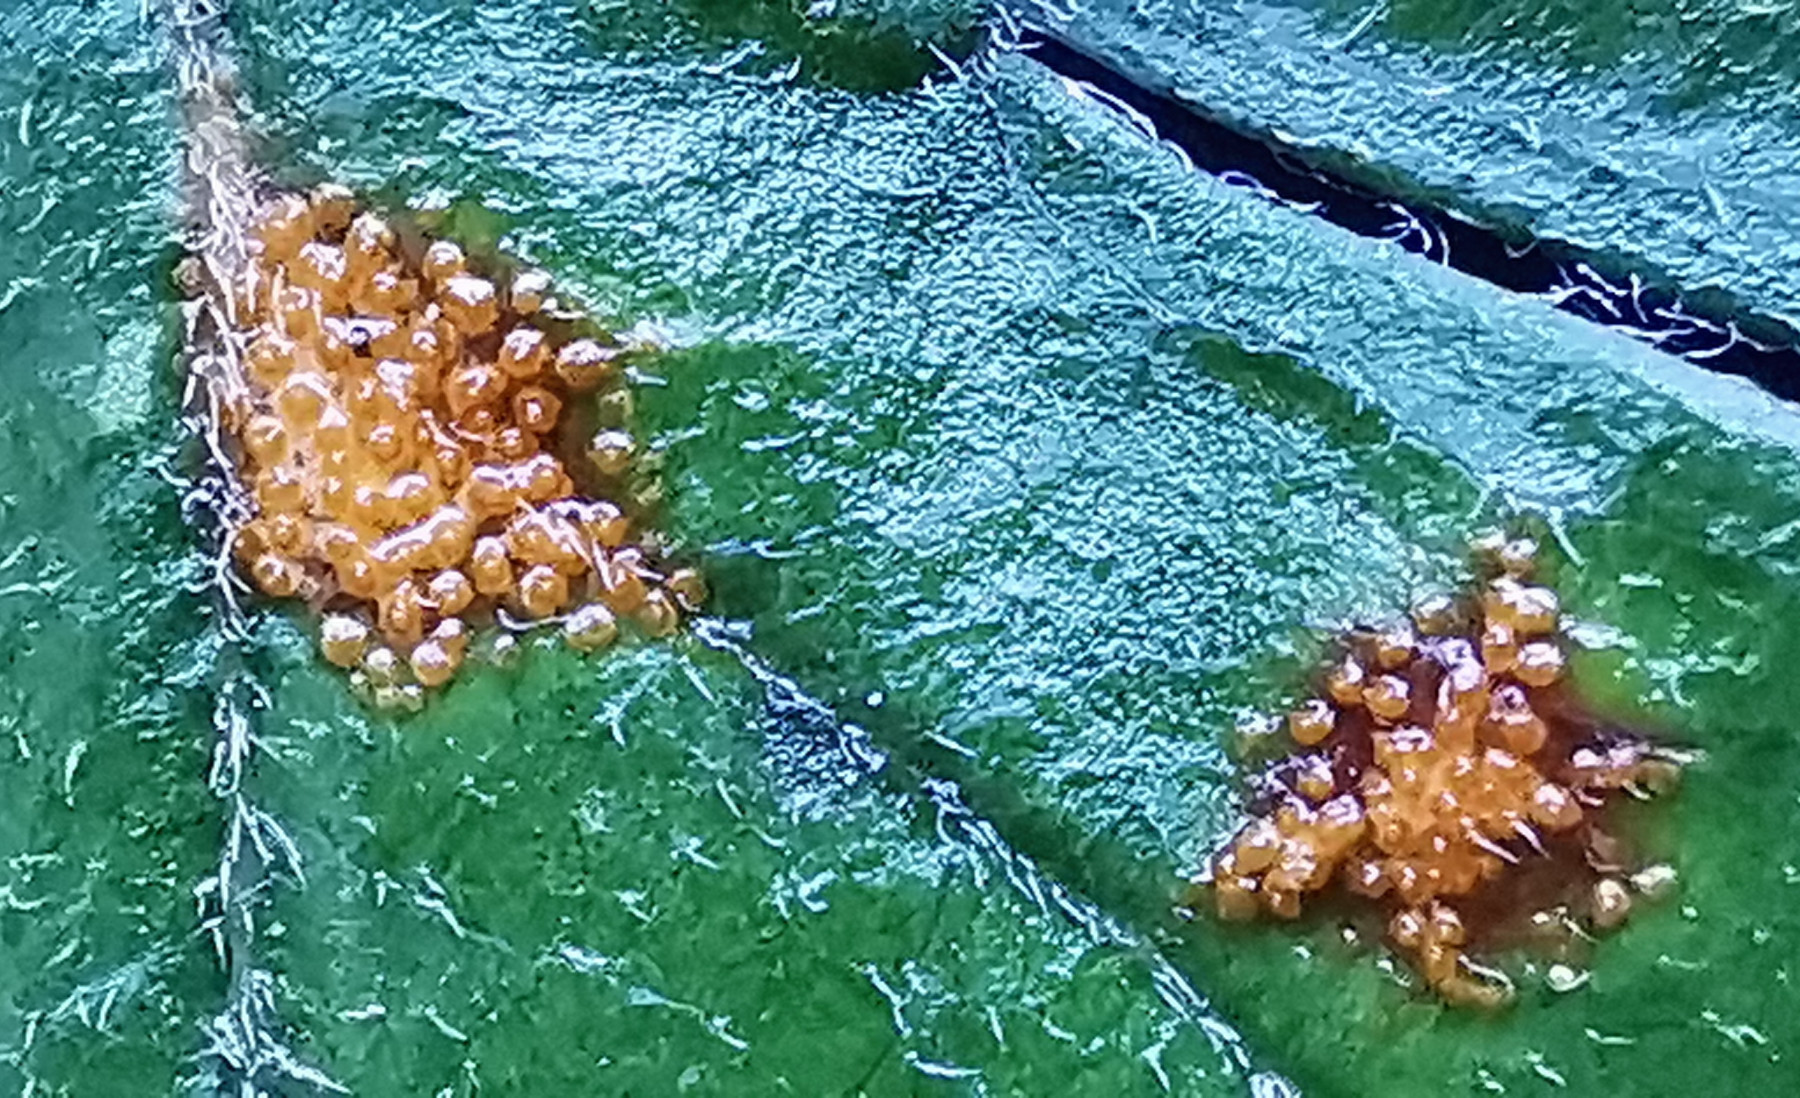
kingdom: Fungi
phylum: Basidiomycota
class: Pucciniomycetes
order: Pucciniales
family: Gymnosporangiaceae
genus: Gymnosporangium
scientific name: Gymnosporangium
